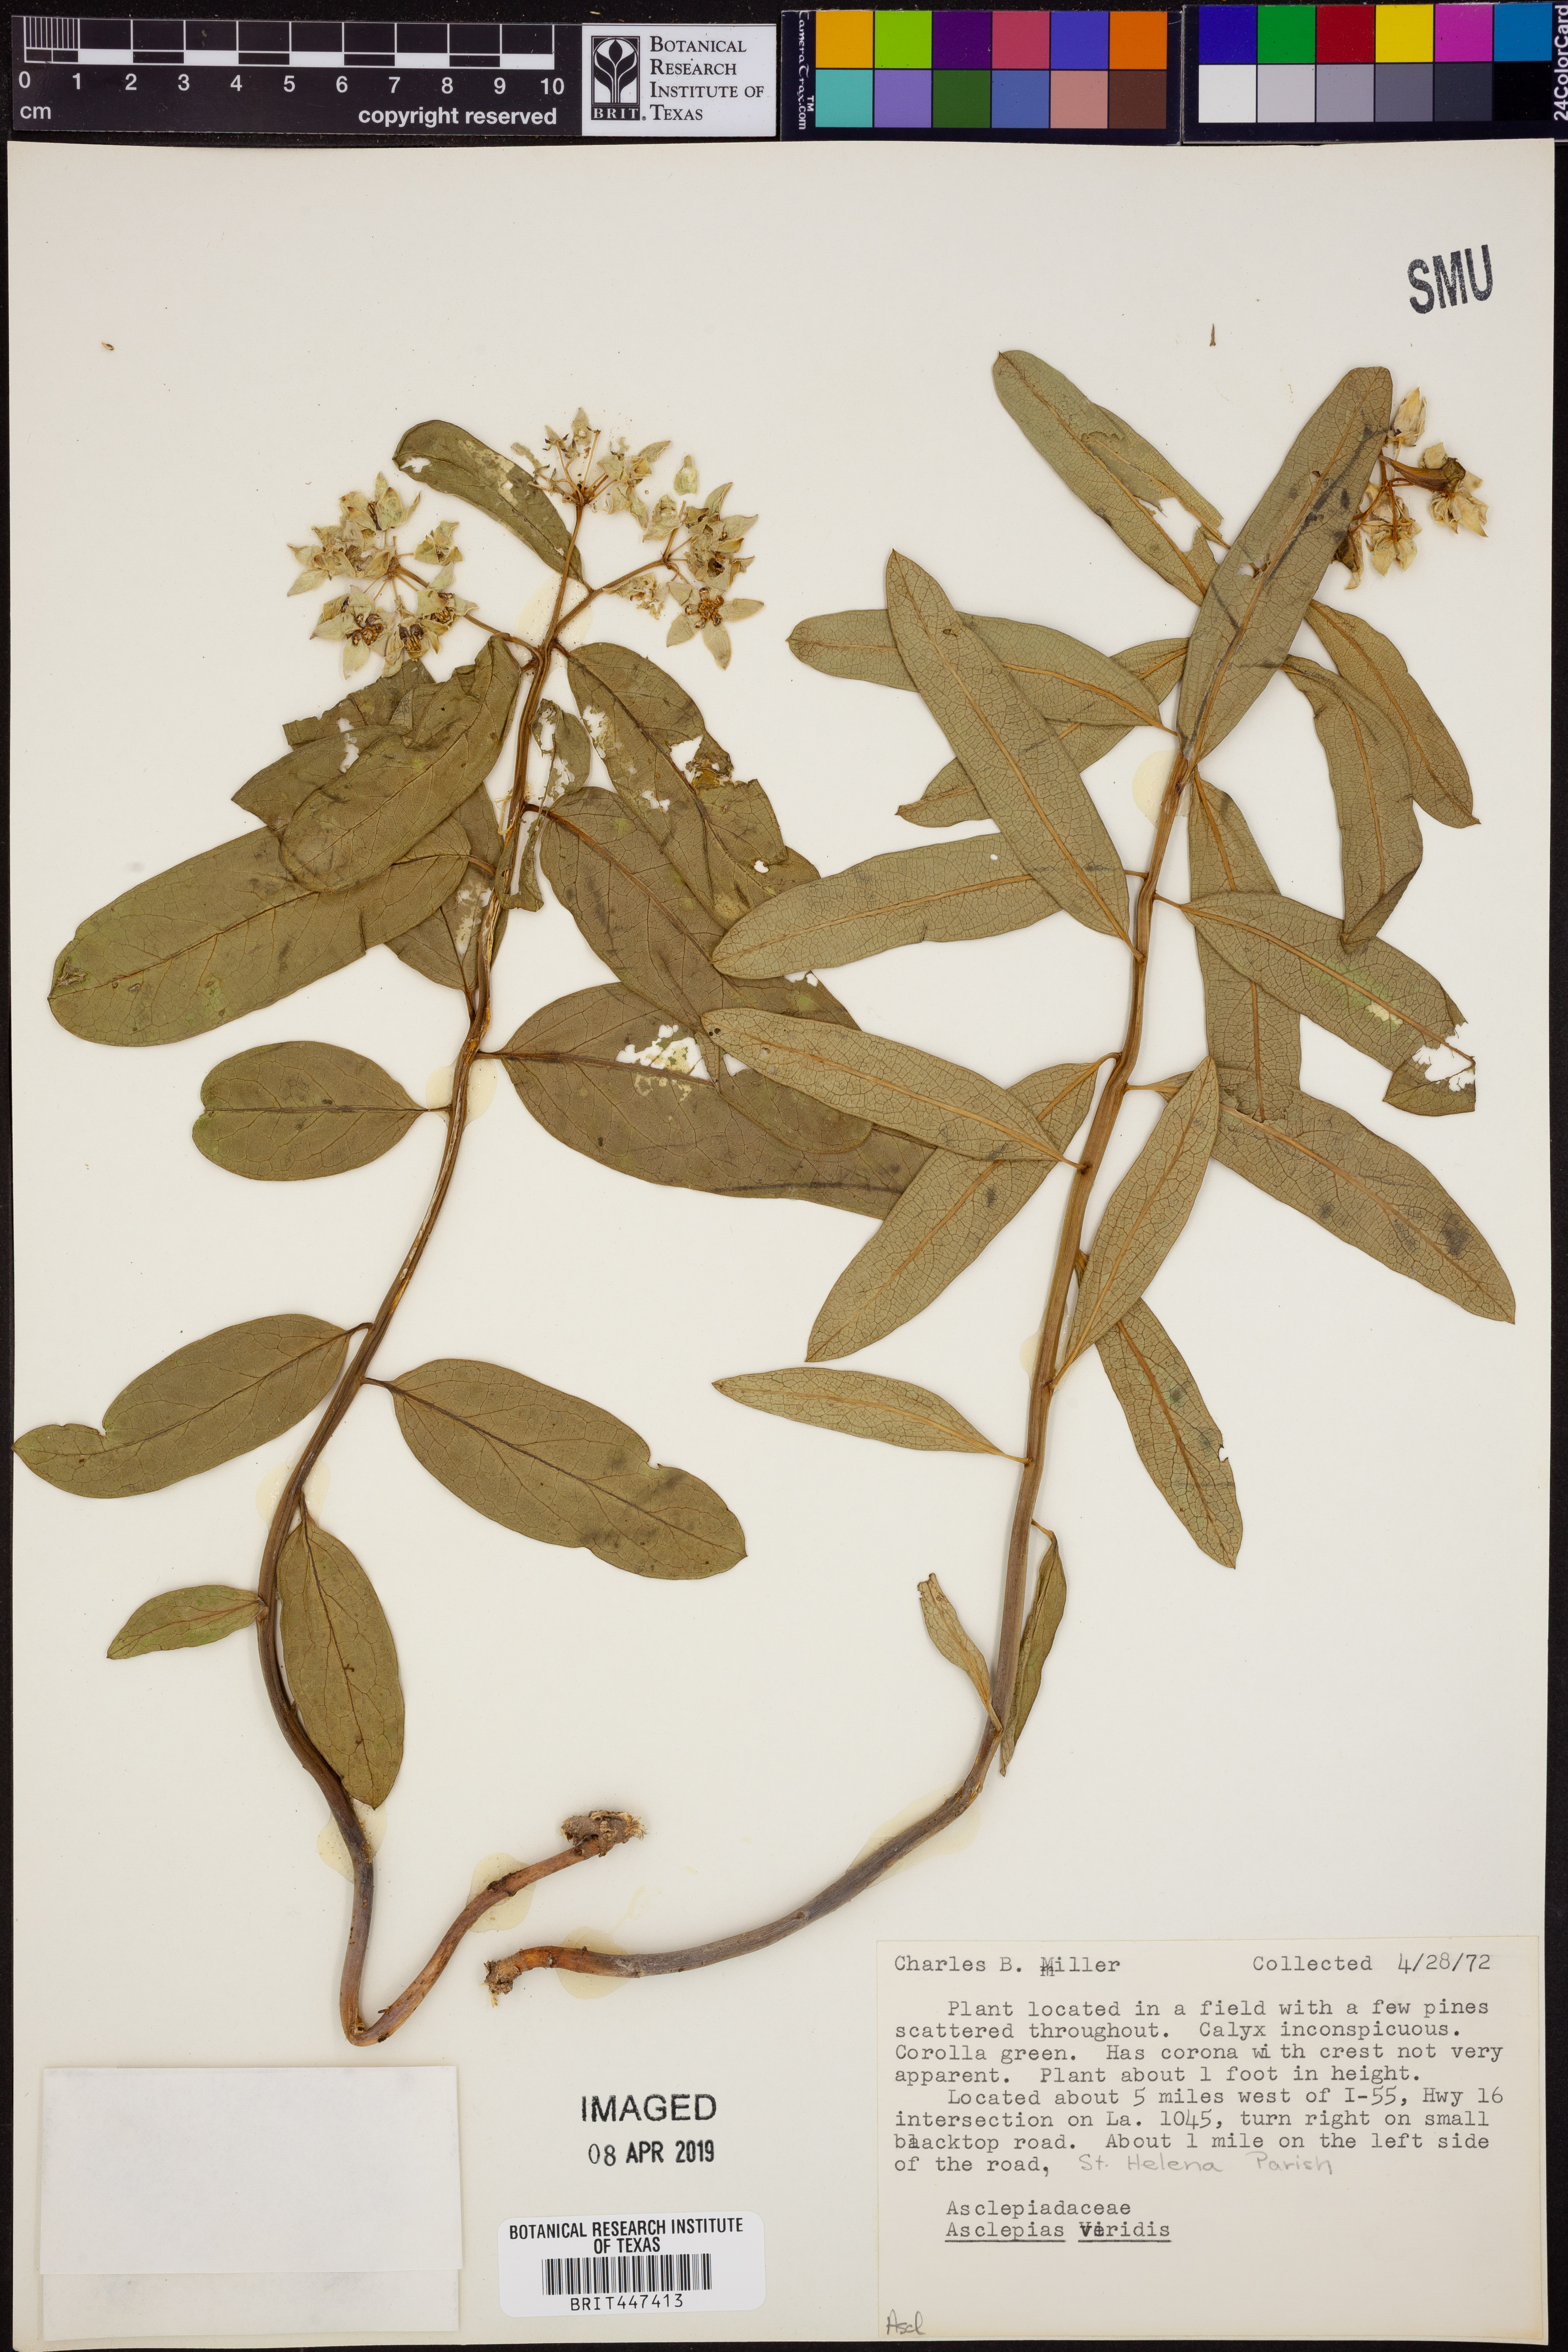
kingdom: Plantae
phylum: Tracheophyta
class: Magnoliopsida
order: Gentianales
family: Apocynaceae
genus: Asclepias
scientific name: Asclepias viridis
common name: Antelope-horns
